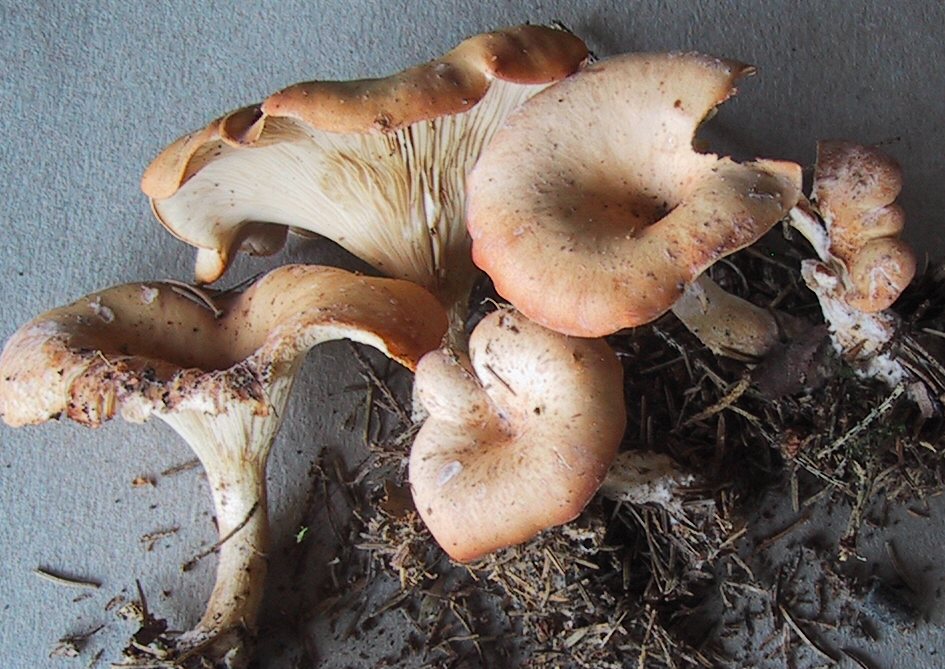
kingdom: Fungi
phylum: Basidiomycota
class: Agaricomycetes
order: Agaricales
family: Tricholomataceae
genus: Paralepista
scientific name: Paralepista flaccida
